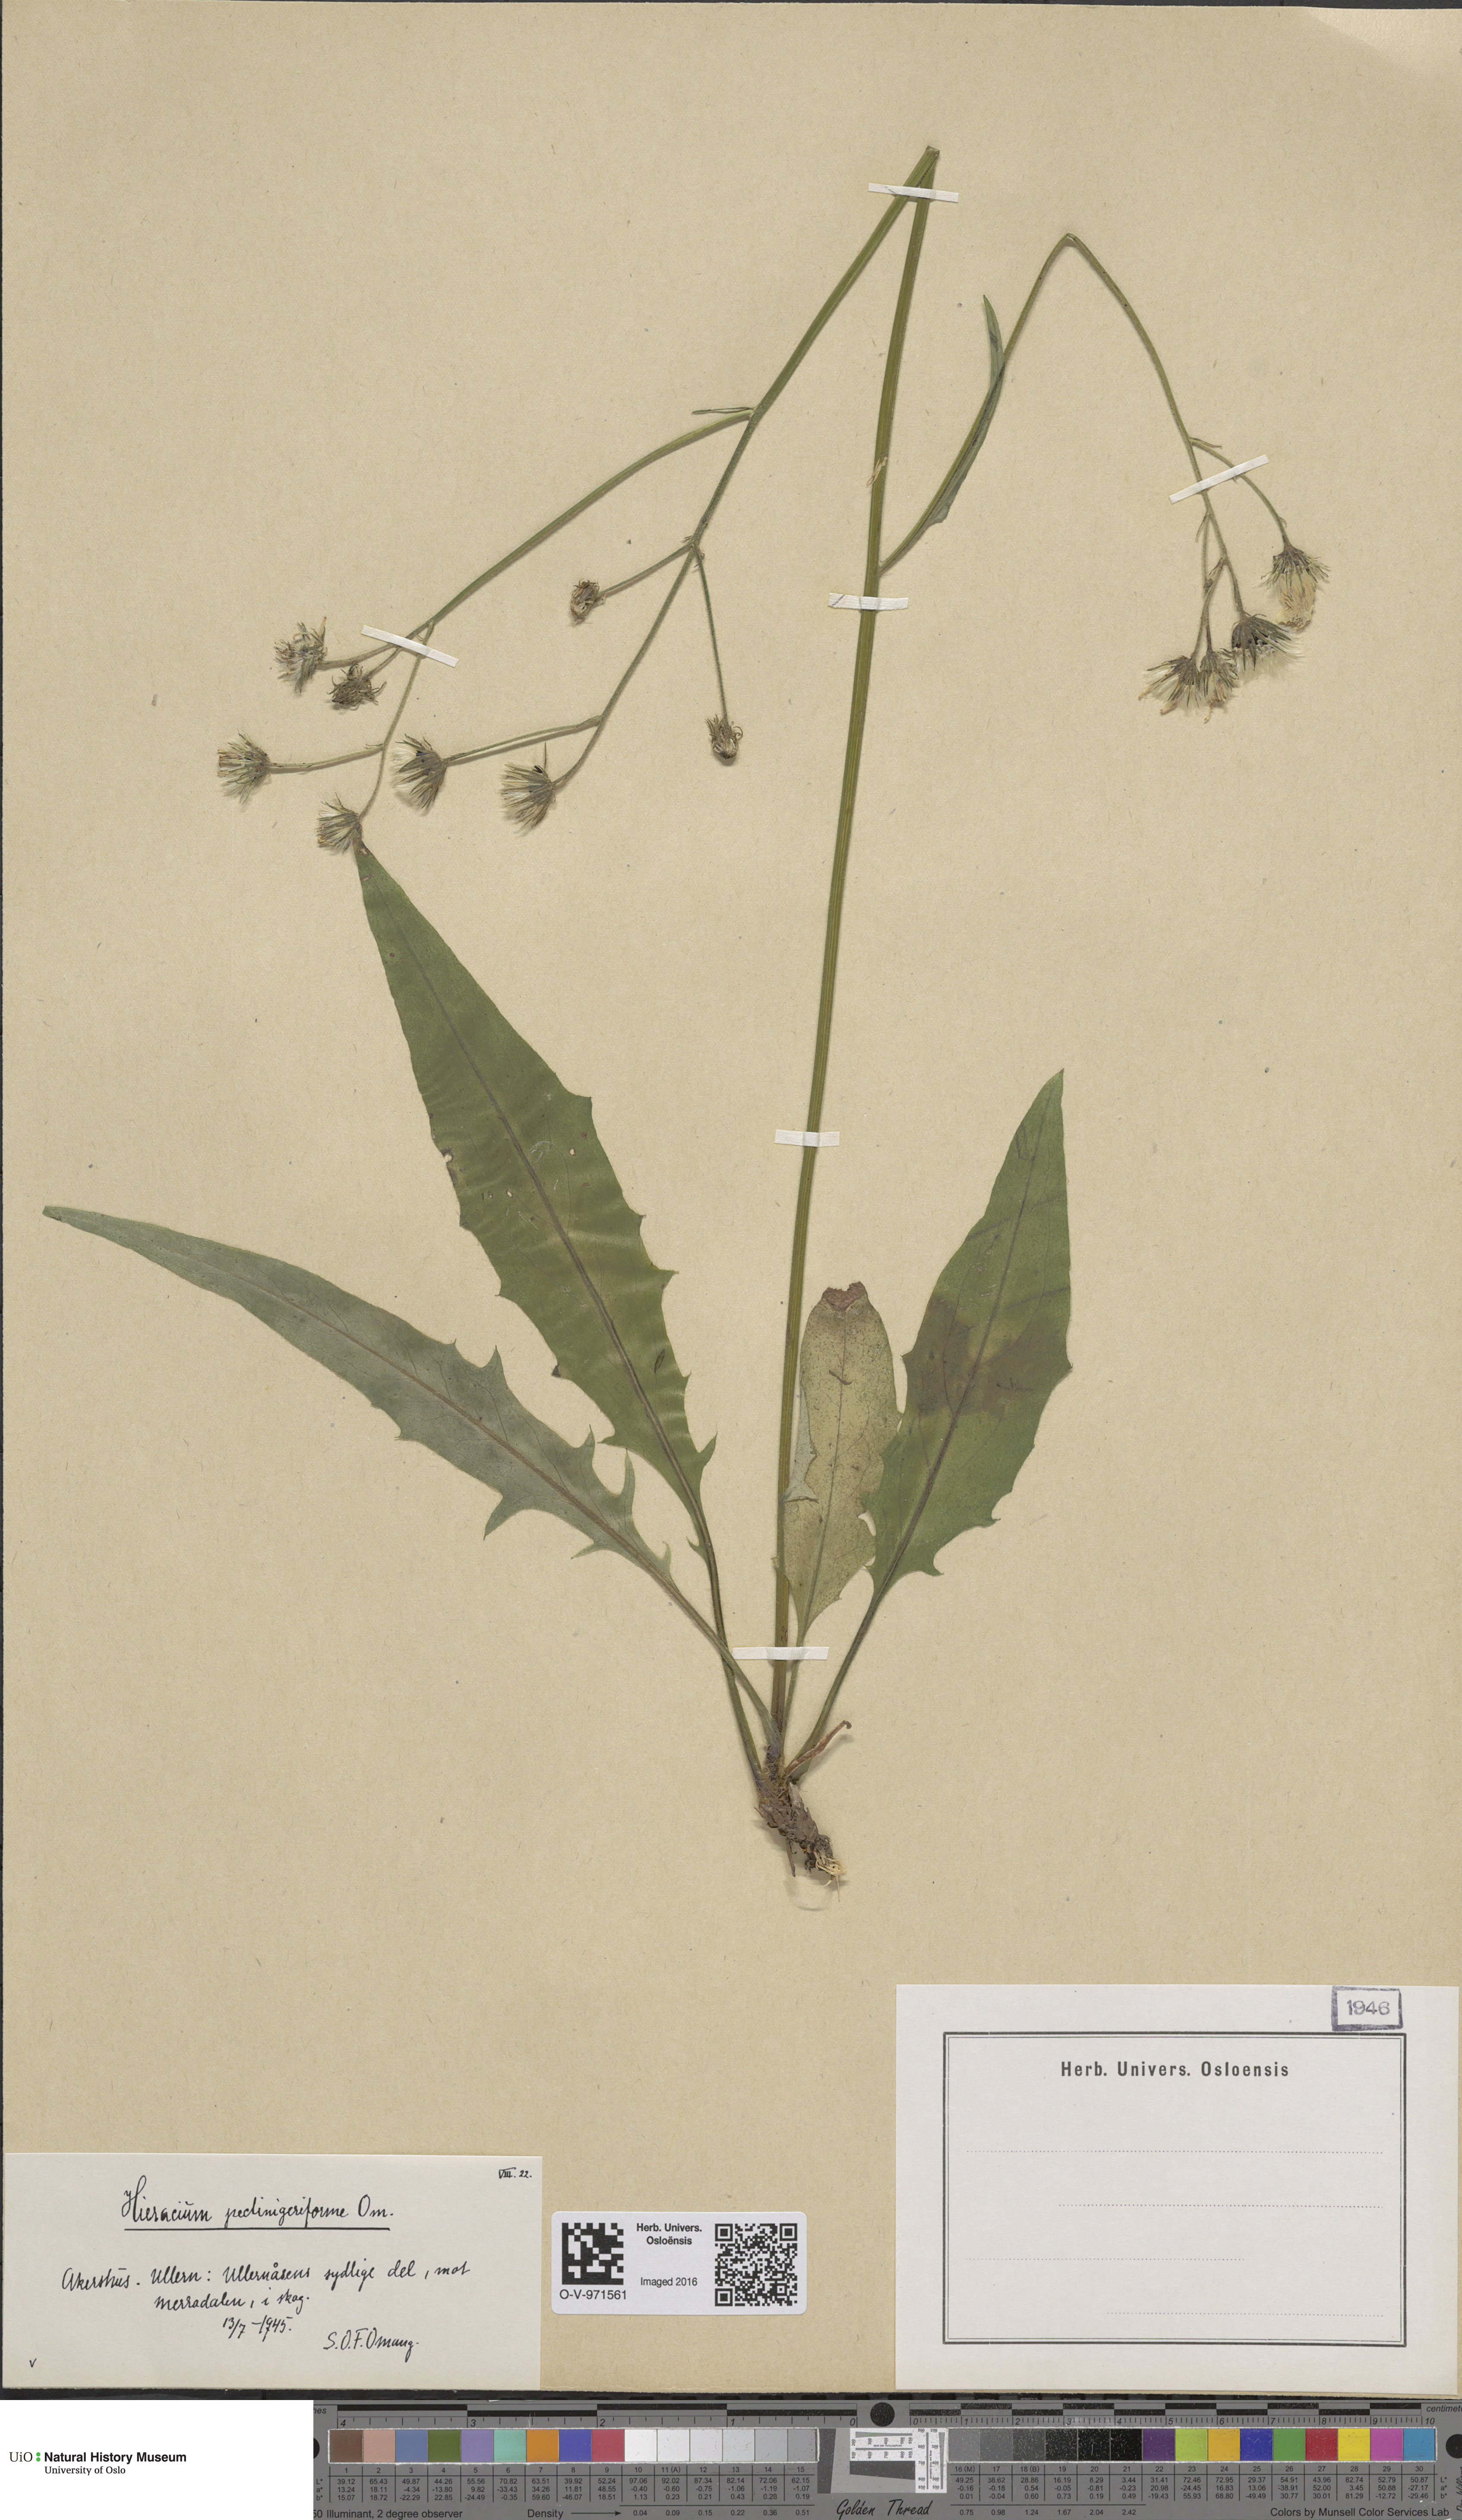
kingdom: Plantae
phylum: Tracheophyta
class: Magnoliopsida
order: Asterales
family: Asteraceae
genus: Hieracium
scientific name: Hieracium
